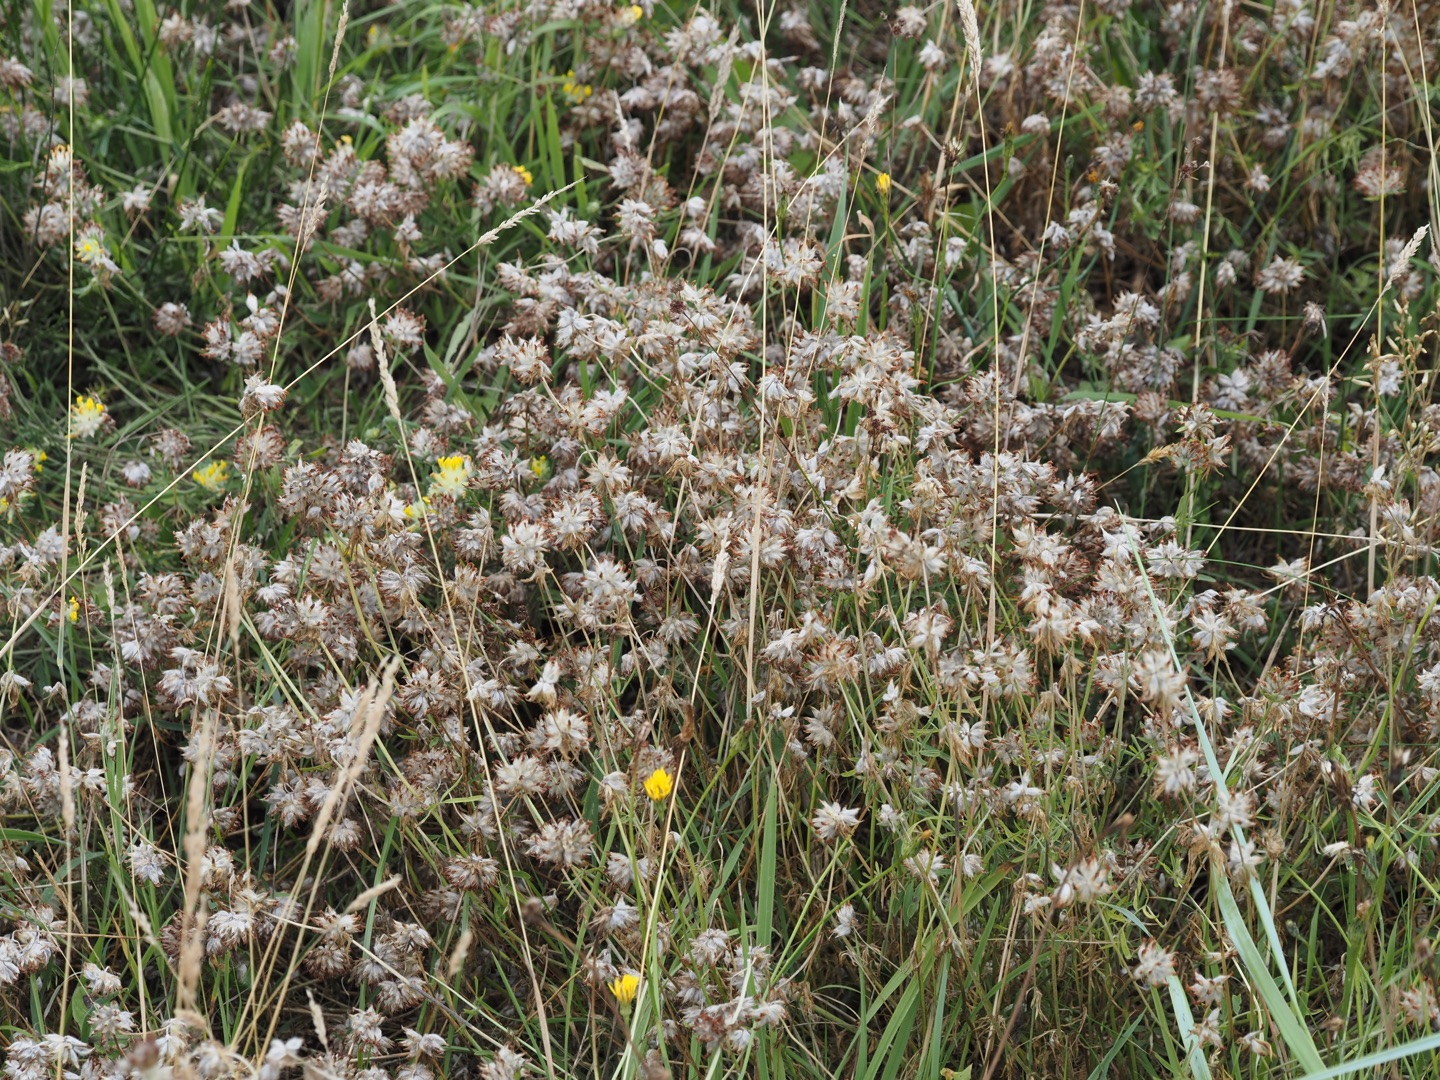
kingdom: Plantae
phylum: Tracheophyta
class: Magnoliopsida
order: Fabales
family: Fabaceae
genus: Anthyllis
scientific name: Anthyllis vulneraria
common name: Rundbælg
